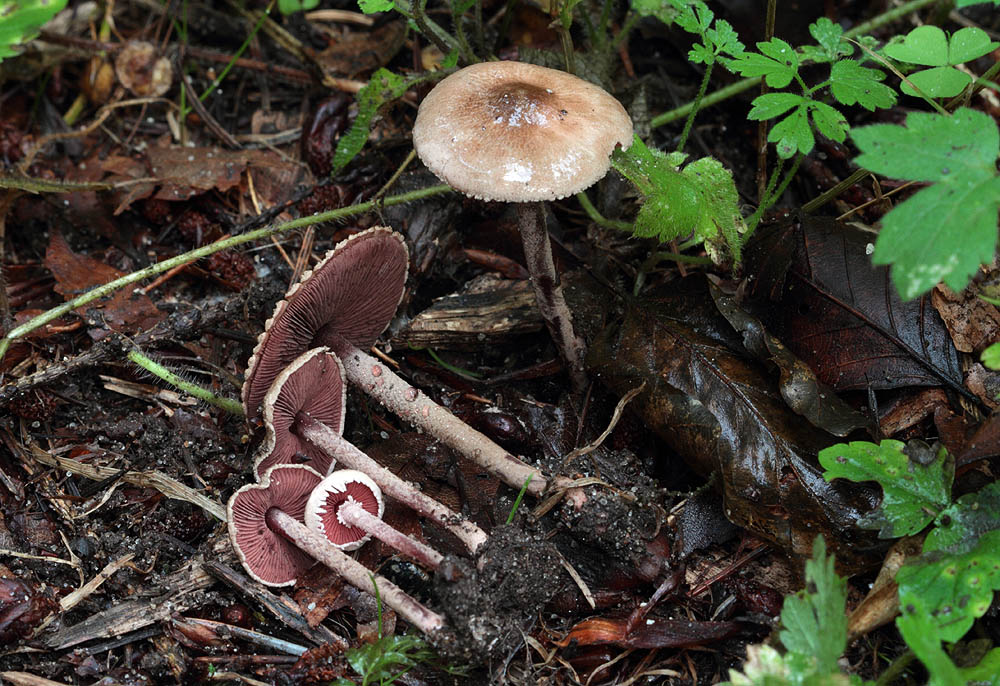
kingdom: Fungi
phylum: Basidiomycota
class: Agaricomycetes
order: Agaricales
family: Agaricaceae
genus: Melanophyllum
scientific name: Melanophyllum haematospermum
